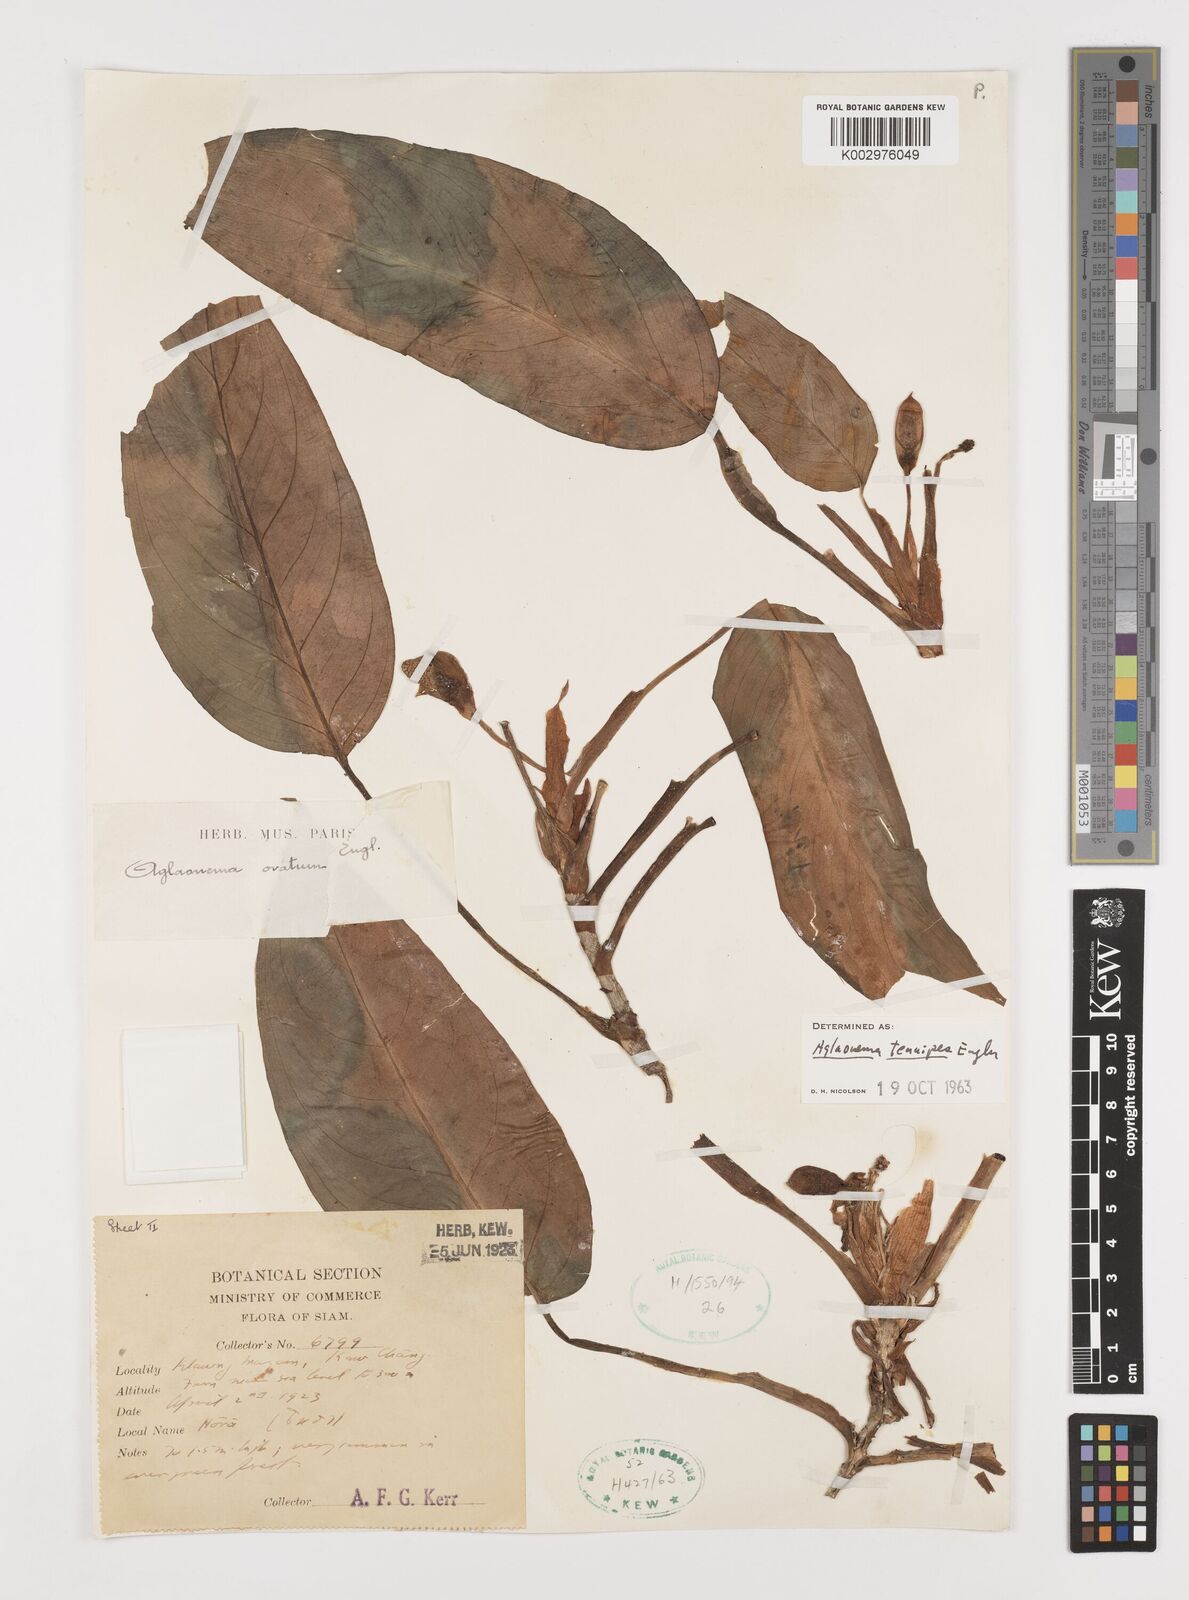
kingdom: Plantae
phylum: Tracheophyta
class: Liliopsida
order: Alismatales
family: Araceae
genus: Aglaonema
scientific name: Aglaonema simplex
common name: Malayan-sword
